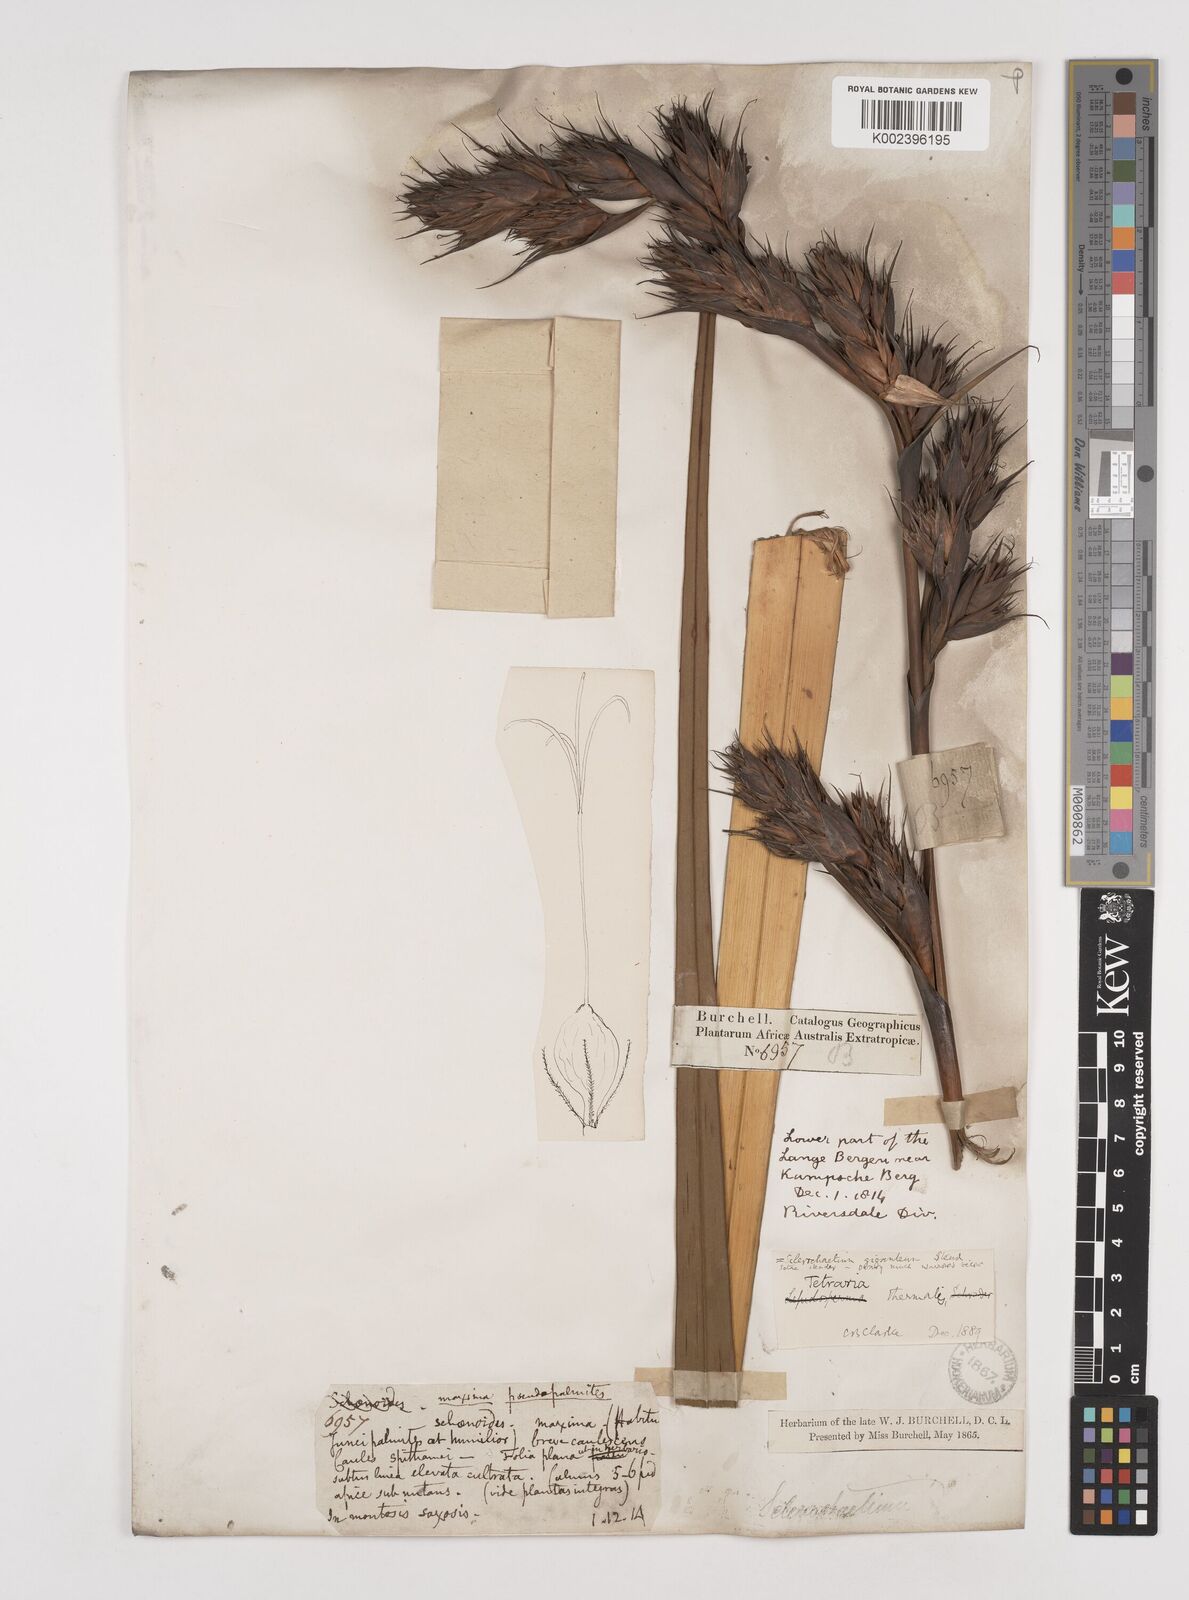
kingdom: Plantae
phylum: Tracheophyta
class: Liliopsida
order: Poales
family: Cyperaceae
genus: Tetraria
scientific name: Tetraria thermalis
